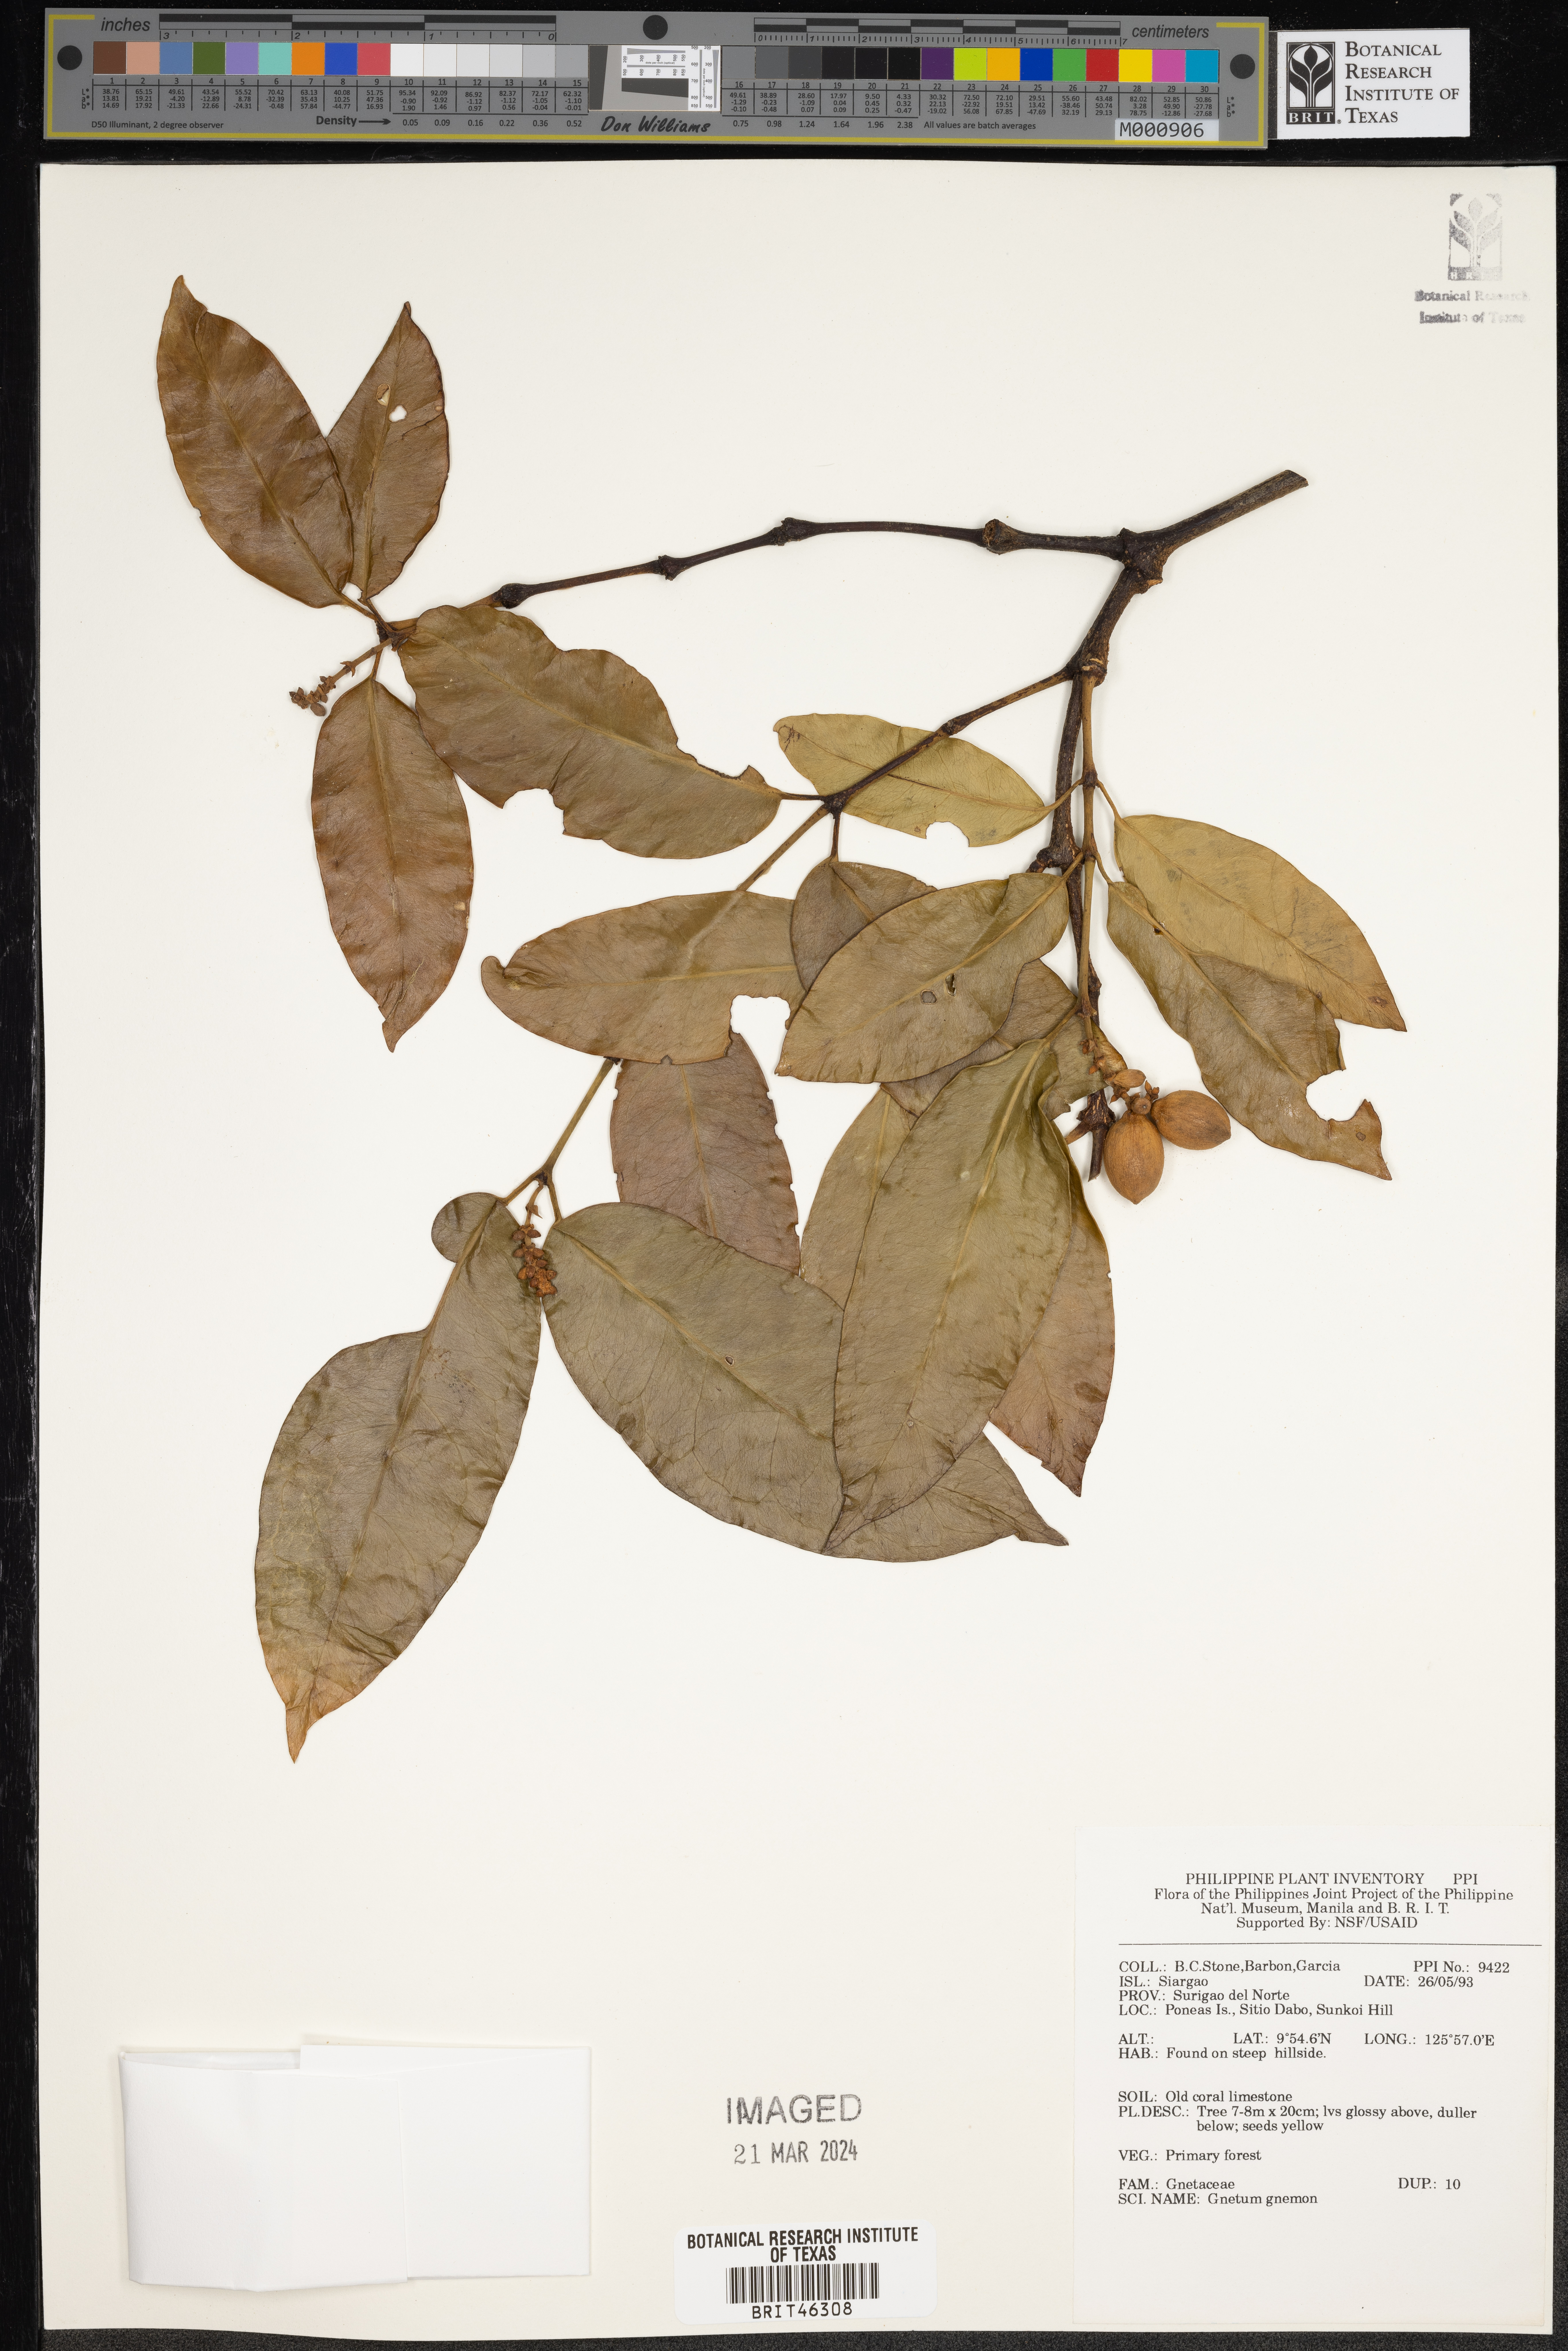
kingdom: Plantae
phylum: Tracheophyta
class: Gnetopsida
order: Gnetales
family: Gnetaceae
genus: Gnetum
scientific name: Gnetum gnemon
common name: Spanish joint-fir
